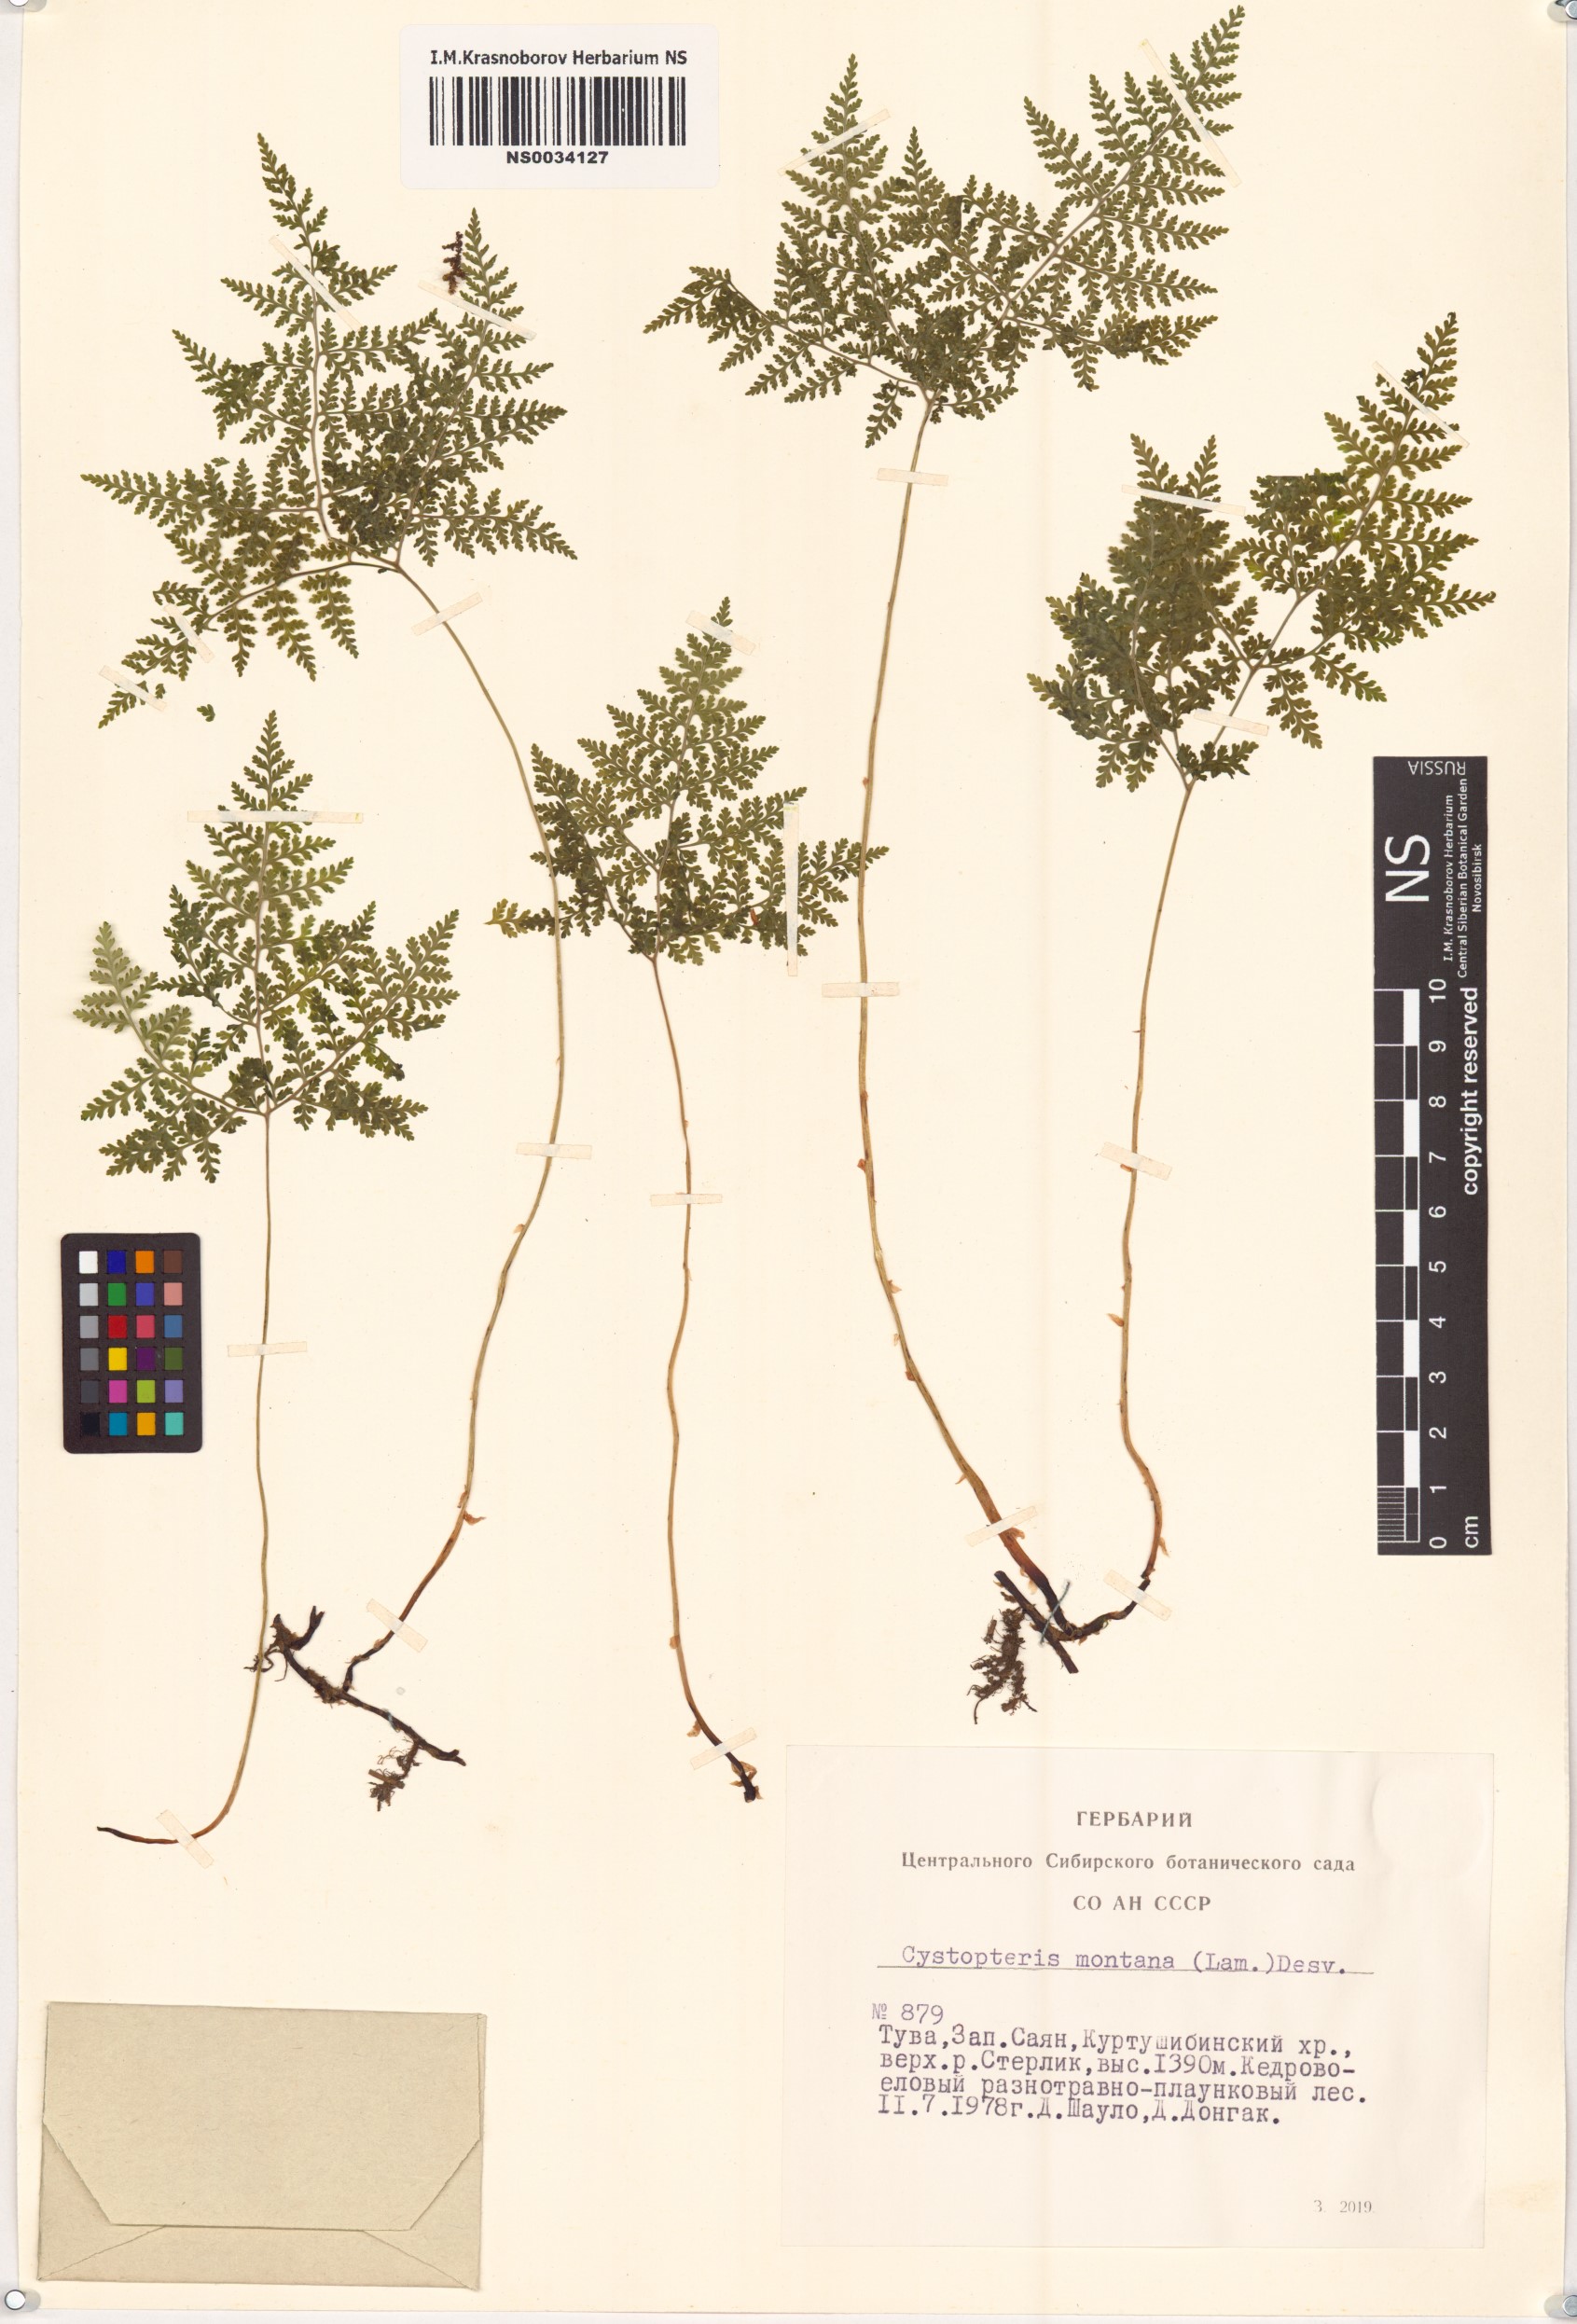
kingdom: Plantae
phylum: Tracheophyta
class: Polypodiopsida
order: Polypodiales
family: Cystopteridaceae
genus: Cystopteris
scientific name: Cystopteris montana
